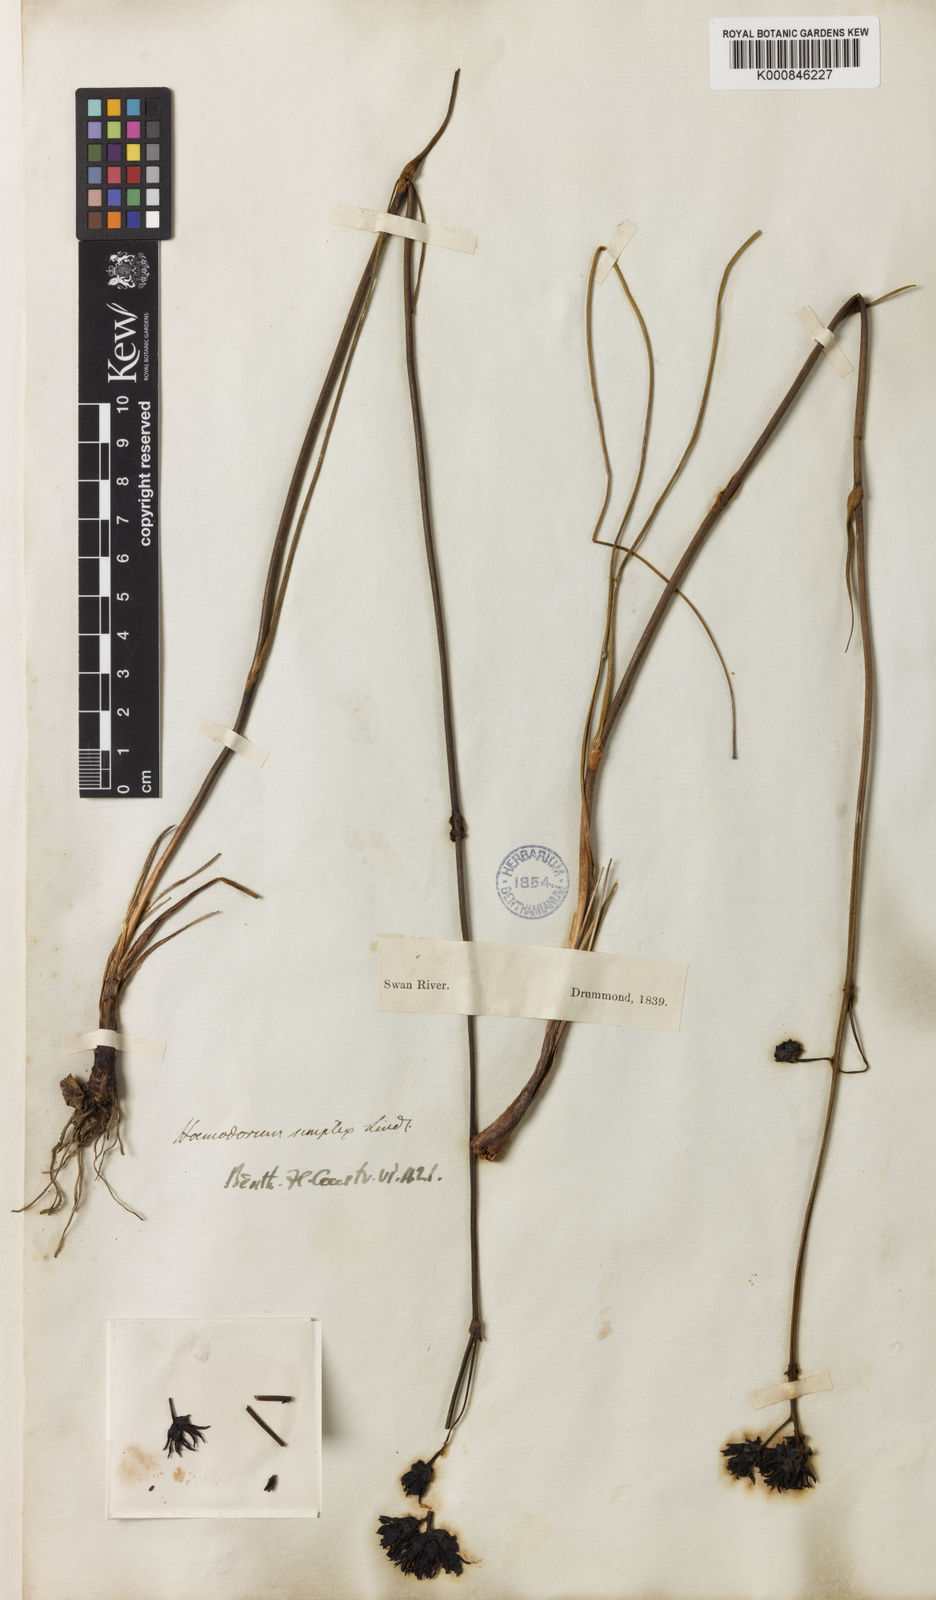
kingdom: Plantae
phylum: Tracheophyta
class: Liliopsida
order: Commelinales
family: Haemodoraceae
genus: Haemodorum
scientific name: Haemodorum simplex
